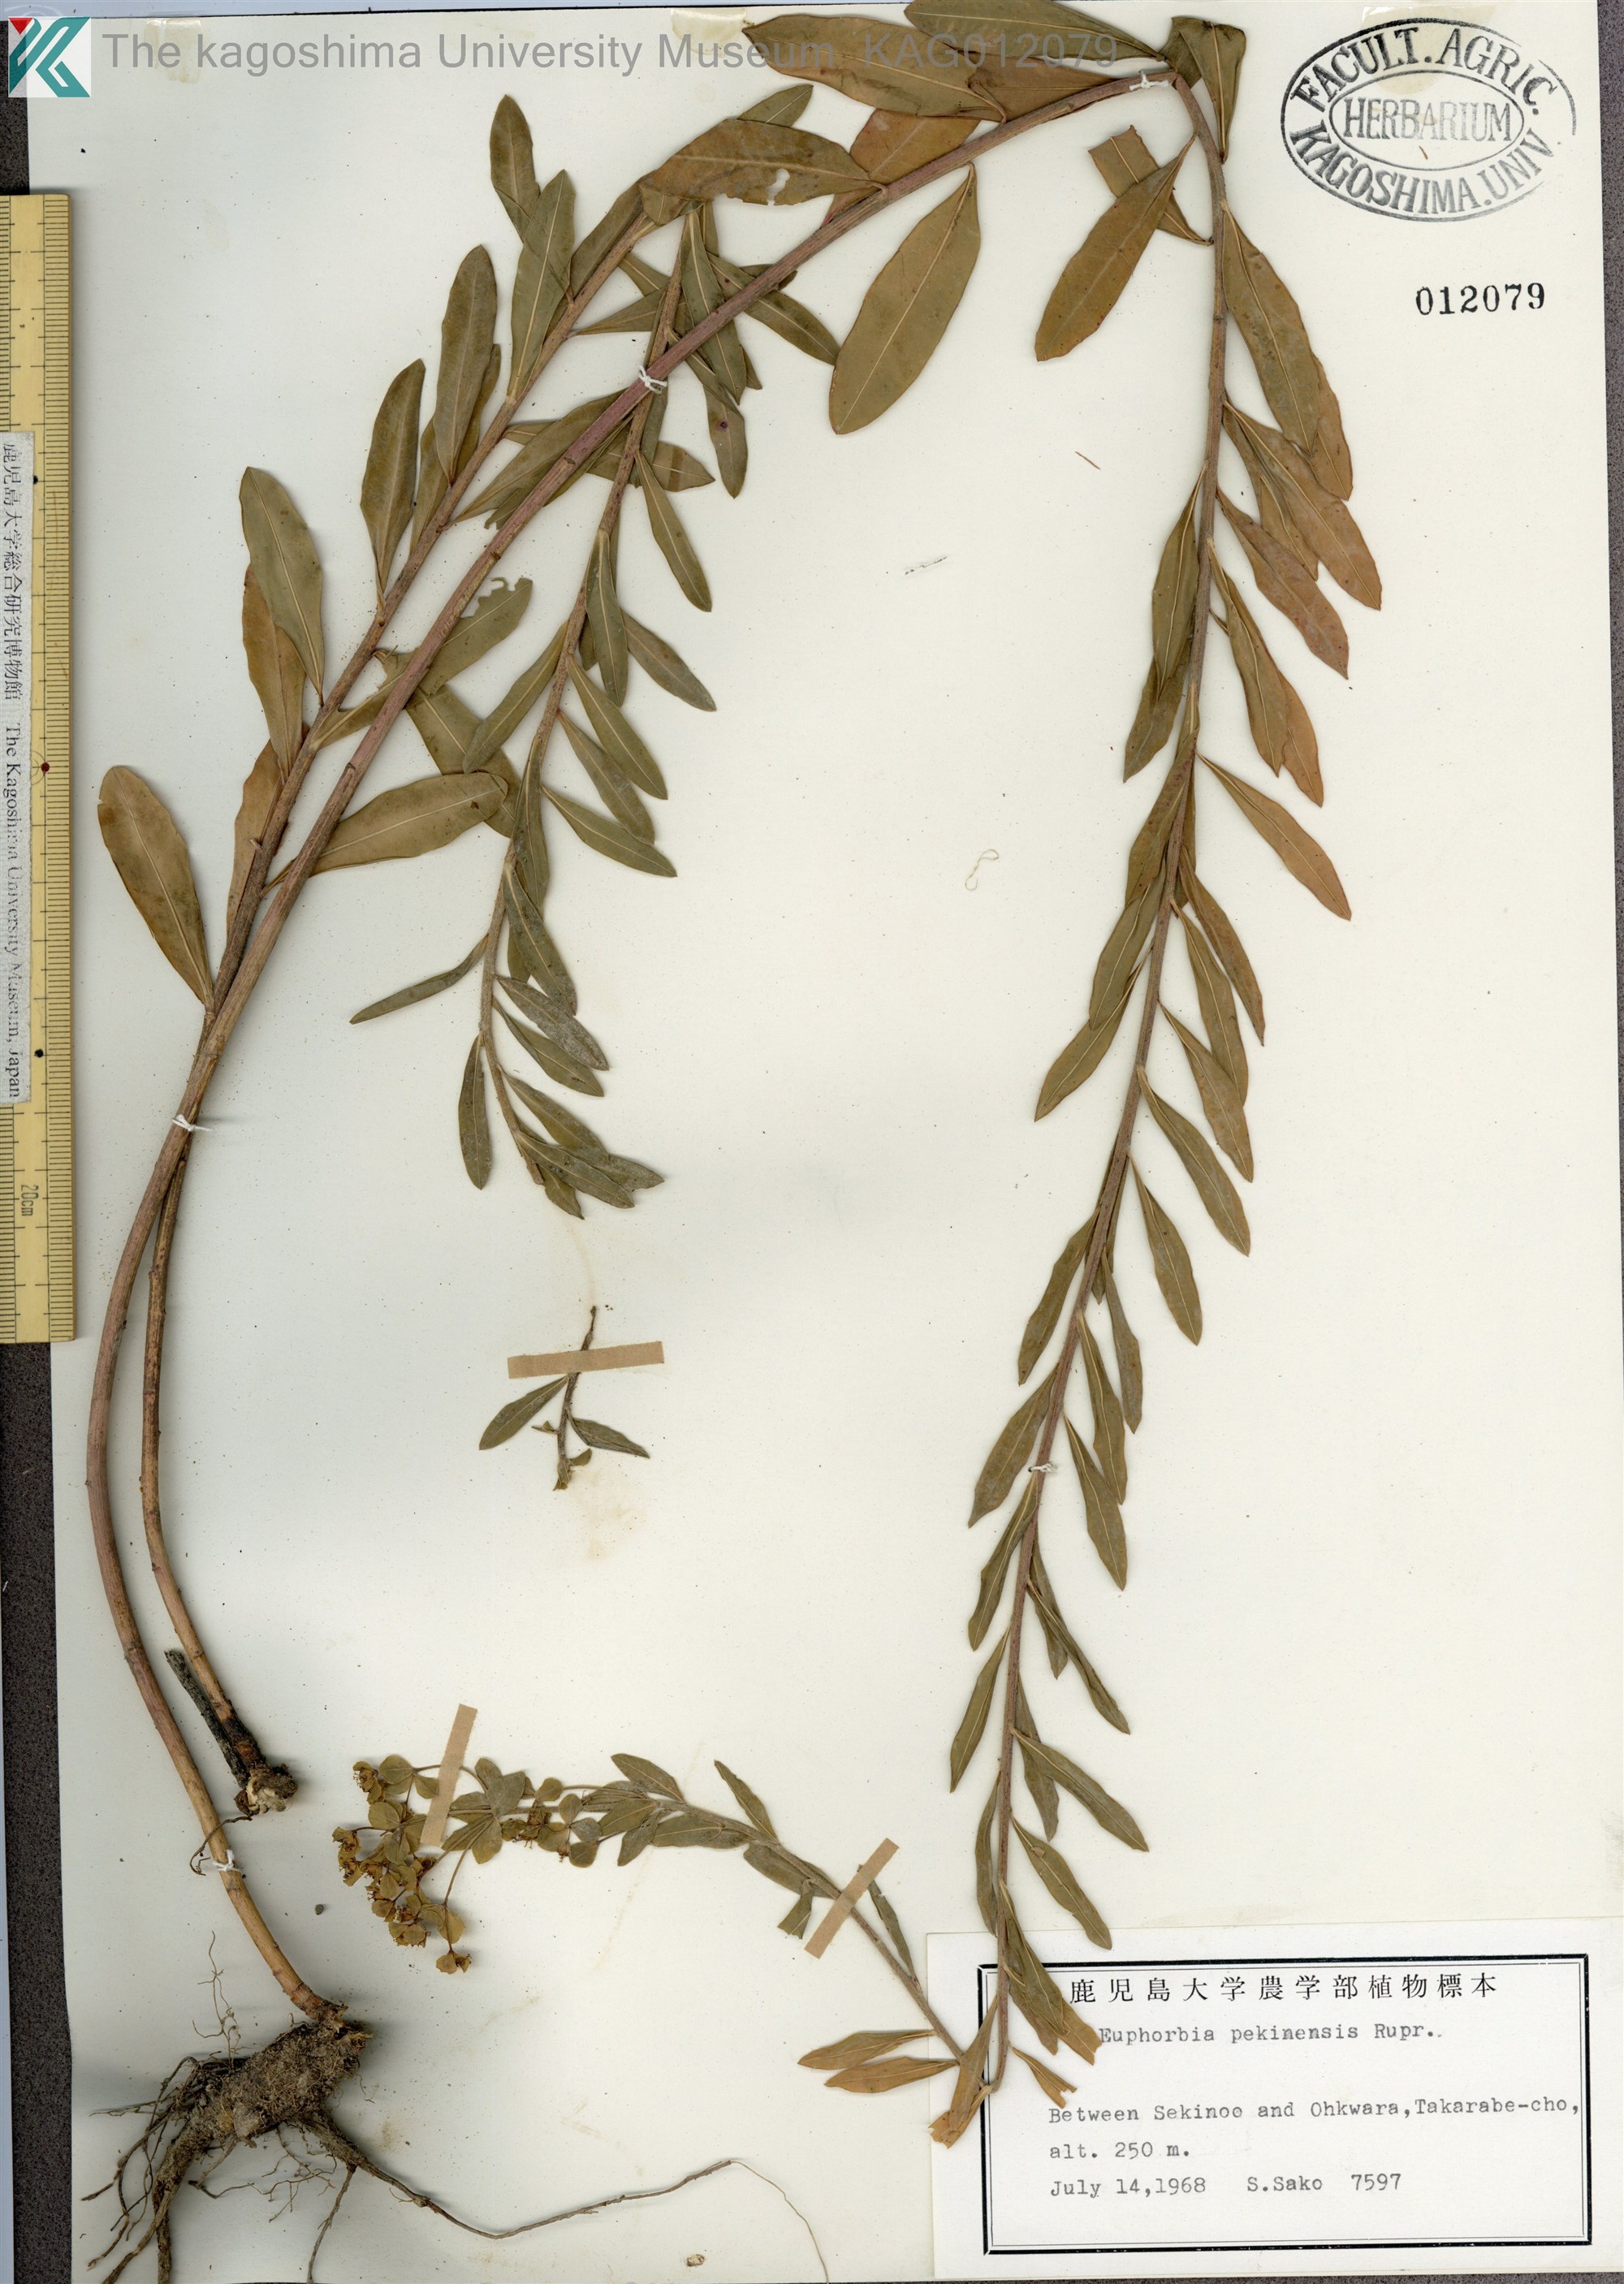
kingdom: Plantae
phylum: Tracheophyta
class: Magnoliopsida
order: Malpighiales
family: Euphorbiaceae
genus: Euphorbia
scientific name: Euphorbia pekinensis
